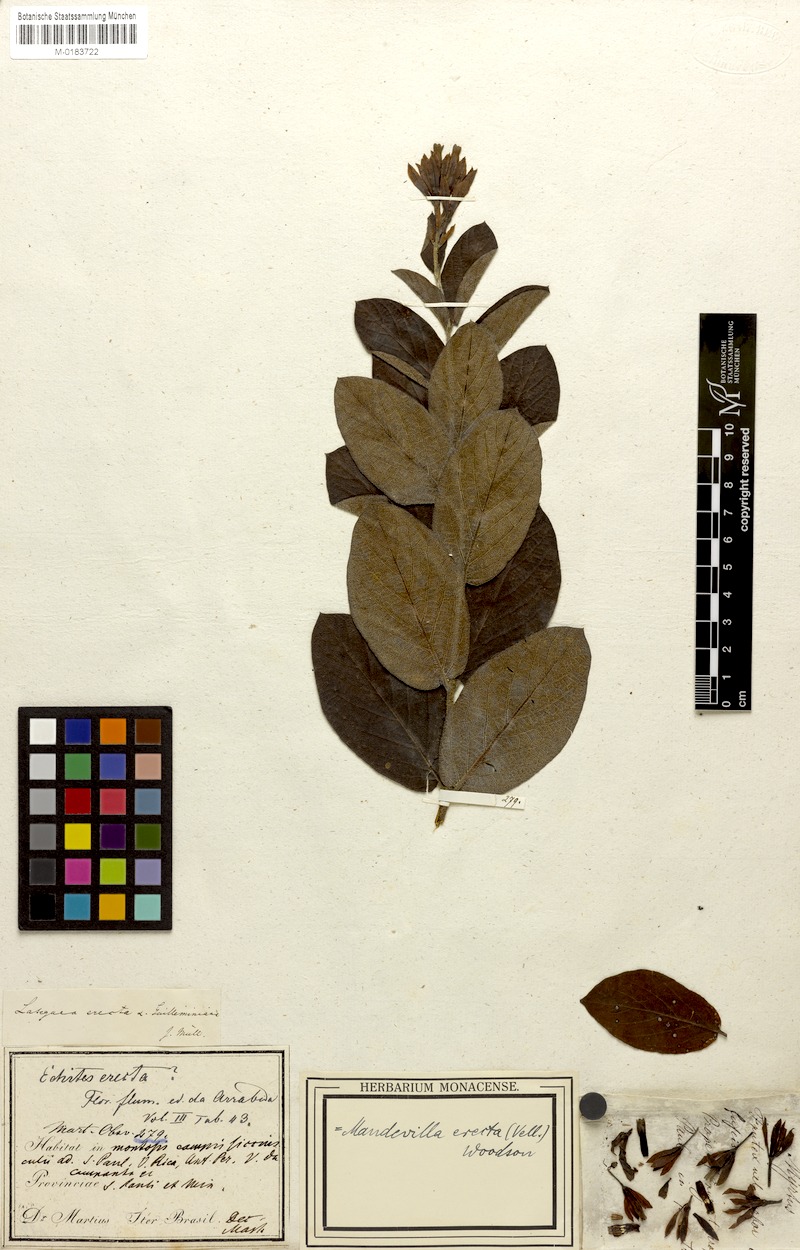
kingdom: Plantae
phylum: Tracheophyta
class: Magnoliopsida
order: Gentianales
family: Apocynaceae
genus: Mandevilla
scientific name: Mandevilla emarginata
